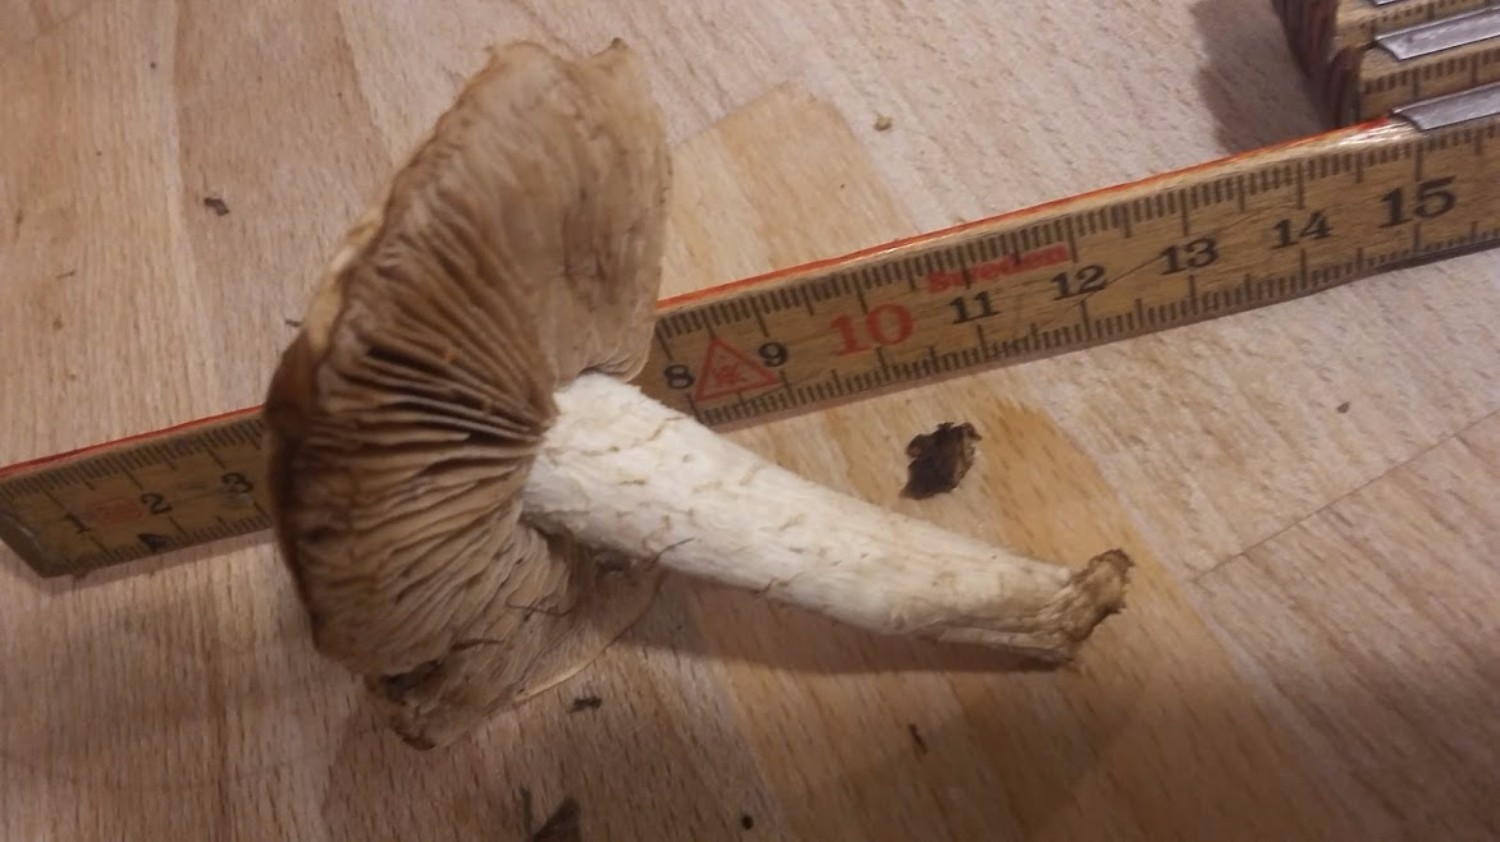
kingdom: Fungi
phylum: Basidiomycota
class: Agaricomycetes
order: Agaricales
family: Hymenogastraceae
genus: Hebeloma
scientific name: Hebeloma
